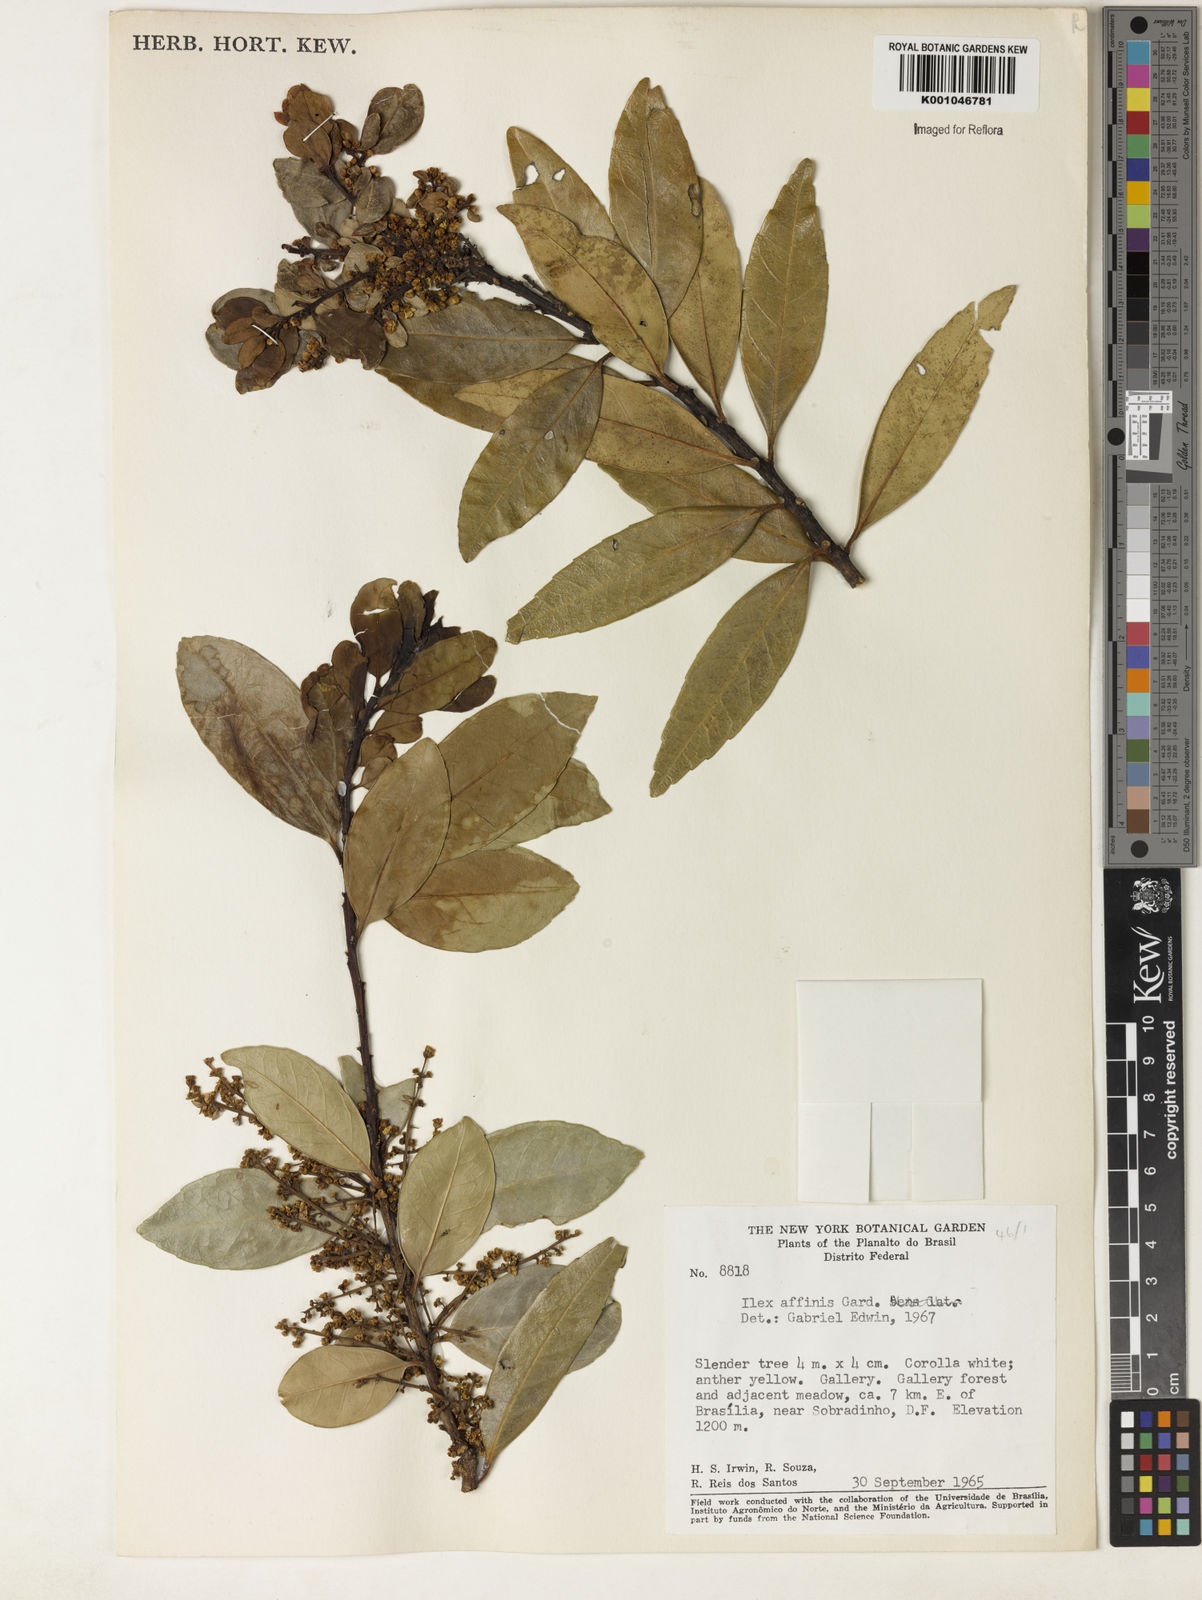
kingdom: Plantae
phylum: Tracheophyta
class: Magnoliopsida
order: Aquifoliales
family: Aquifoliaceae
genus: Ilex
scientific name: Ilex affinis
